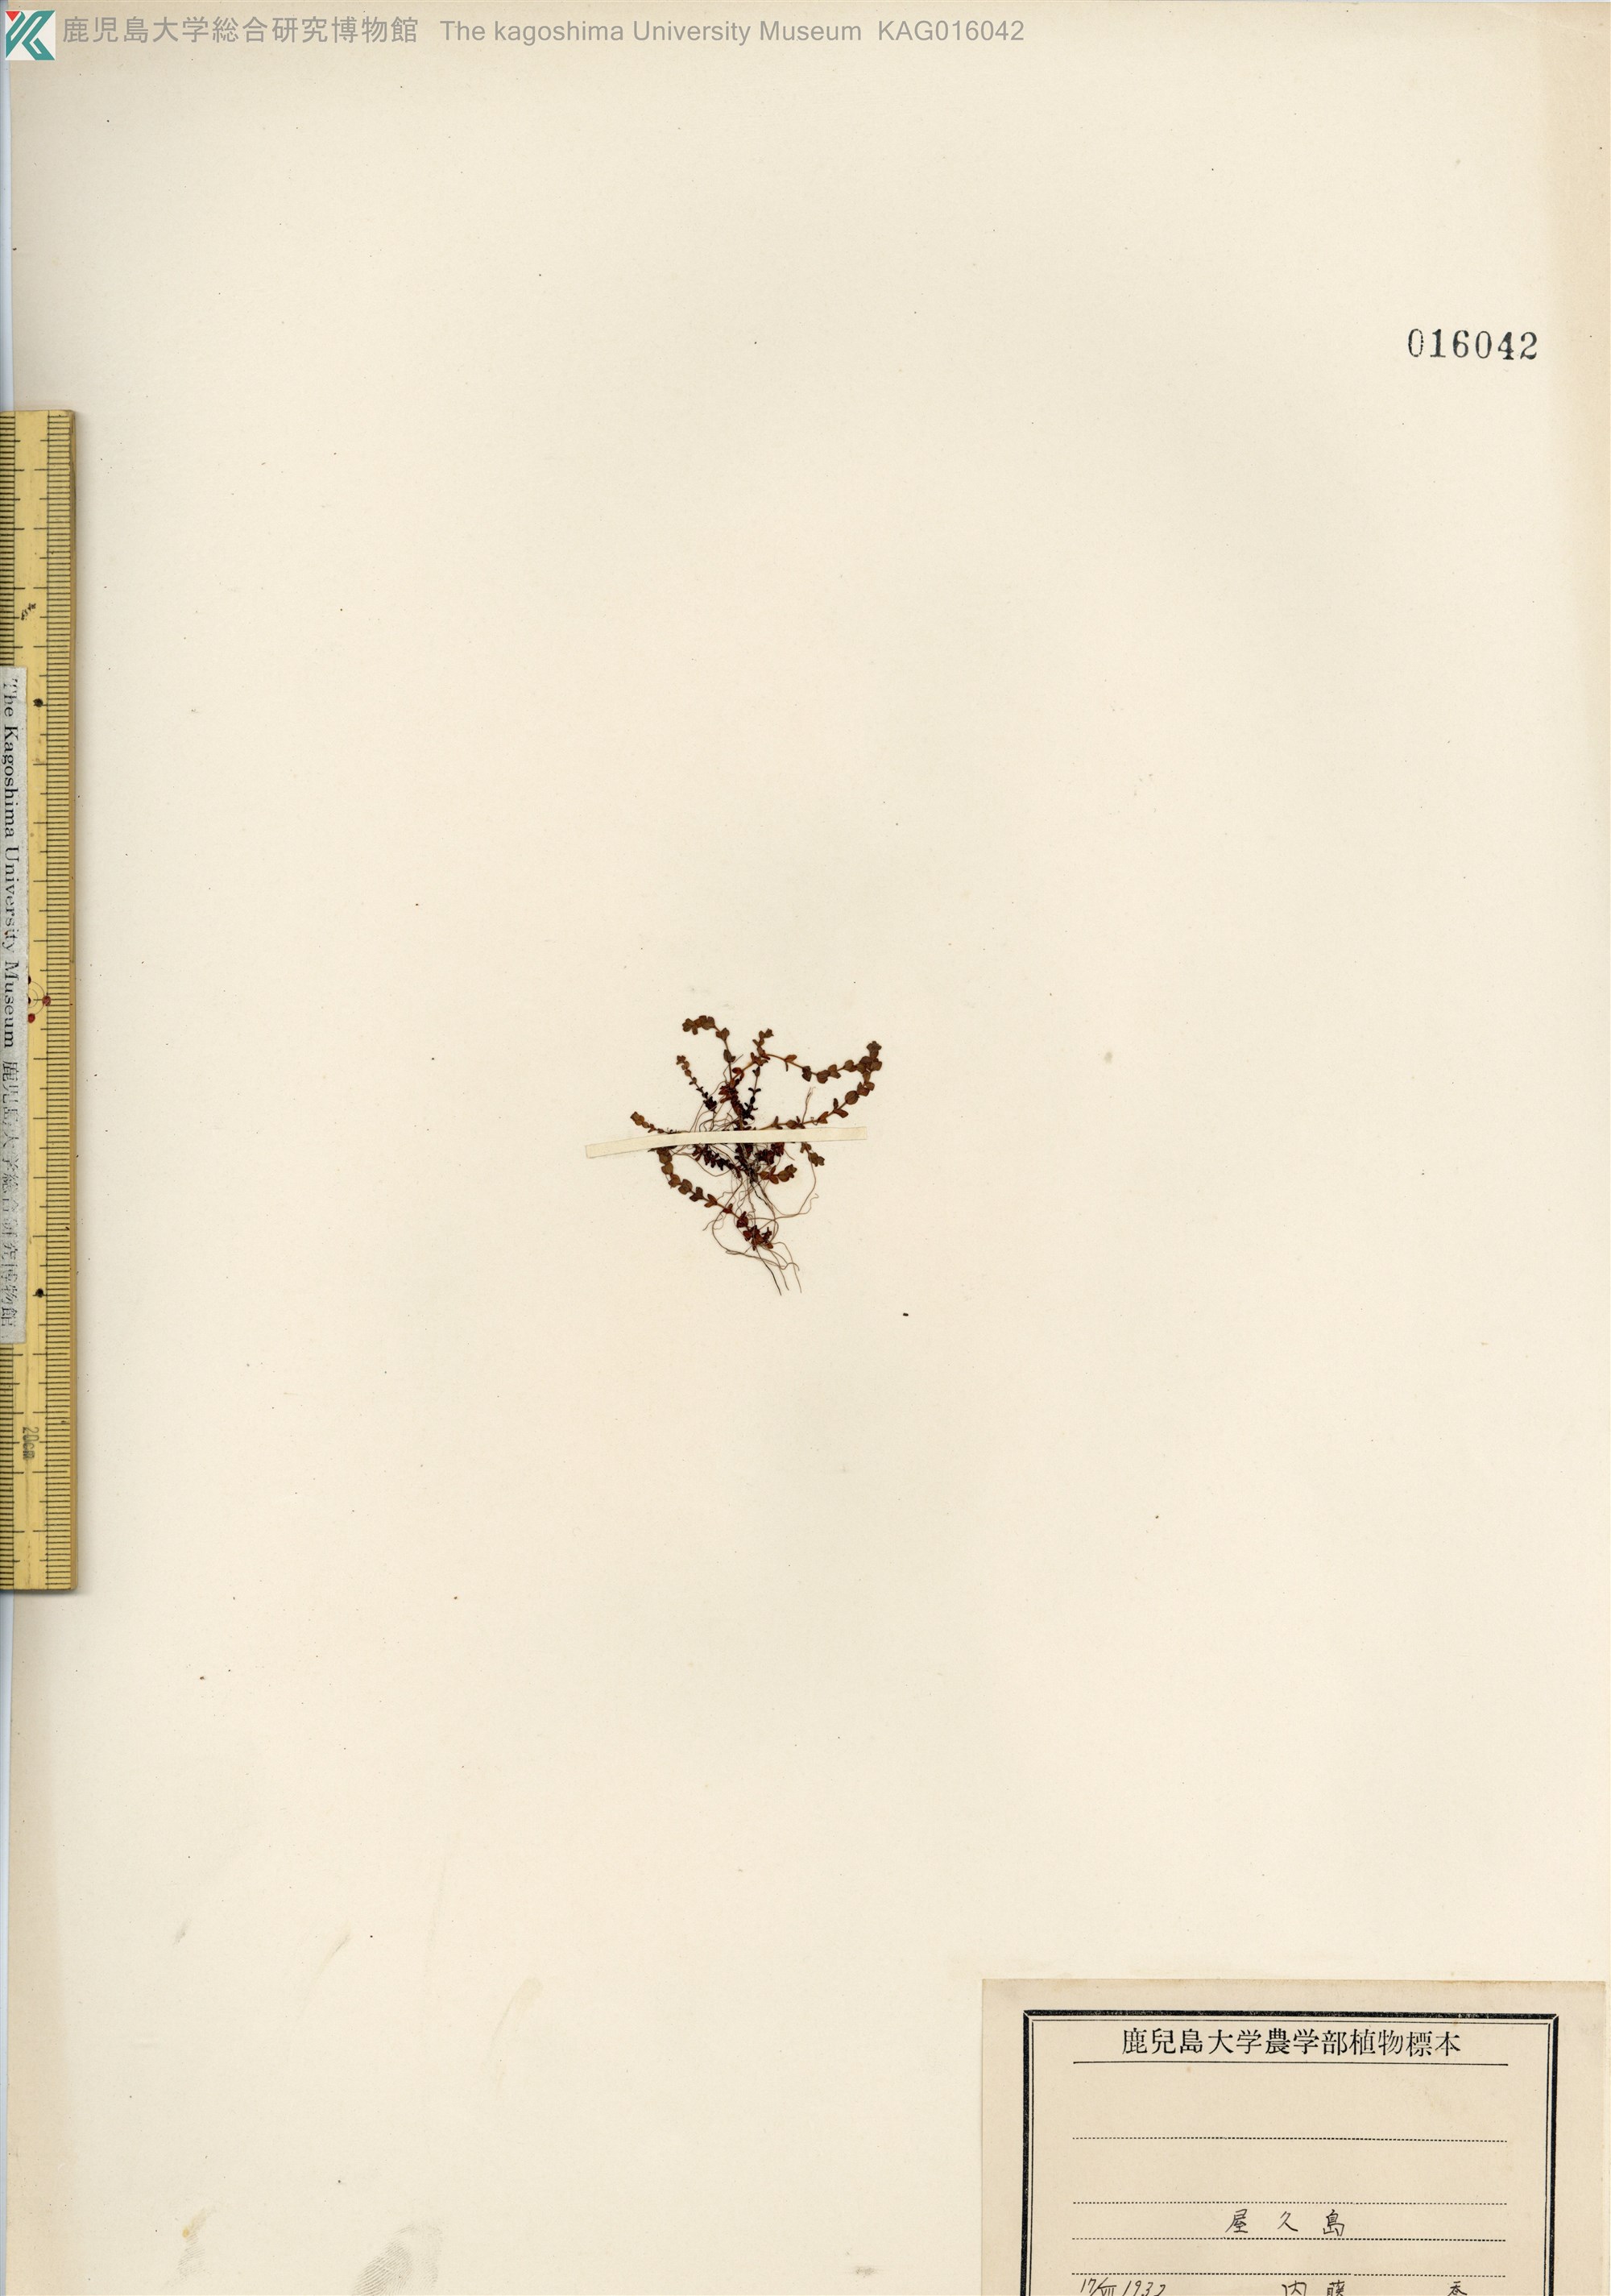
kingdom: Plantae
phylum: Tracheophyta
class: Magnoliopsida
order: Malpighiales
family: Hypericaceae
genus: Hypericum
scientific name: Hypericum japonicum
